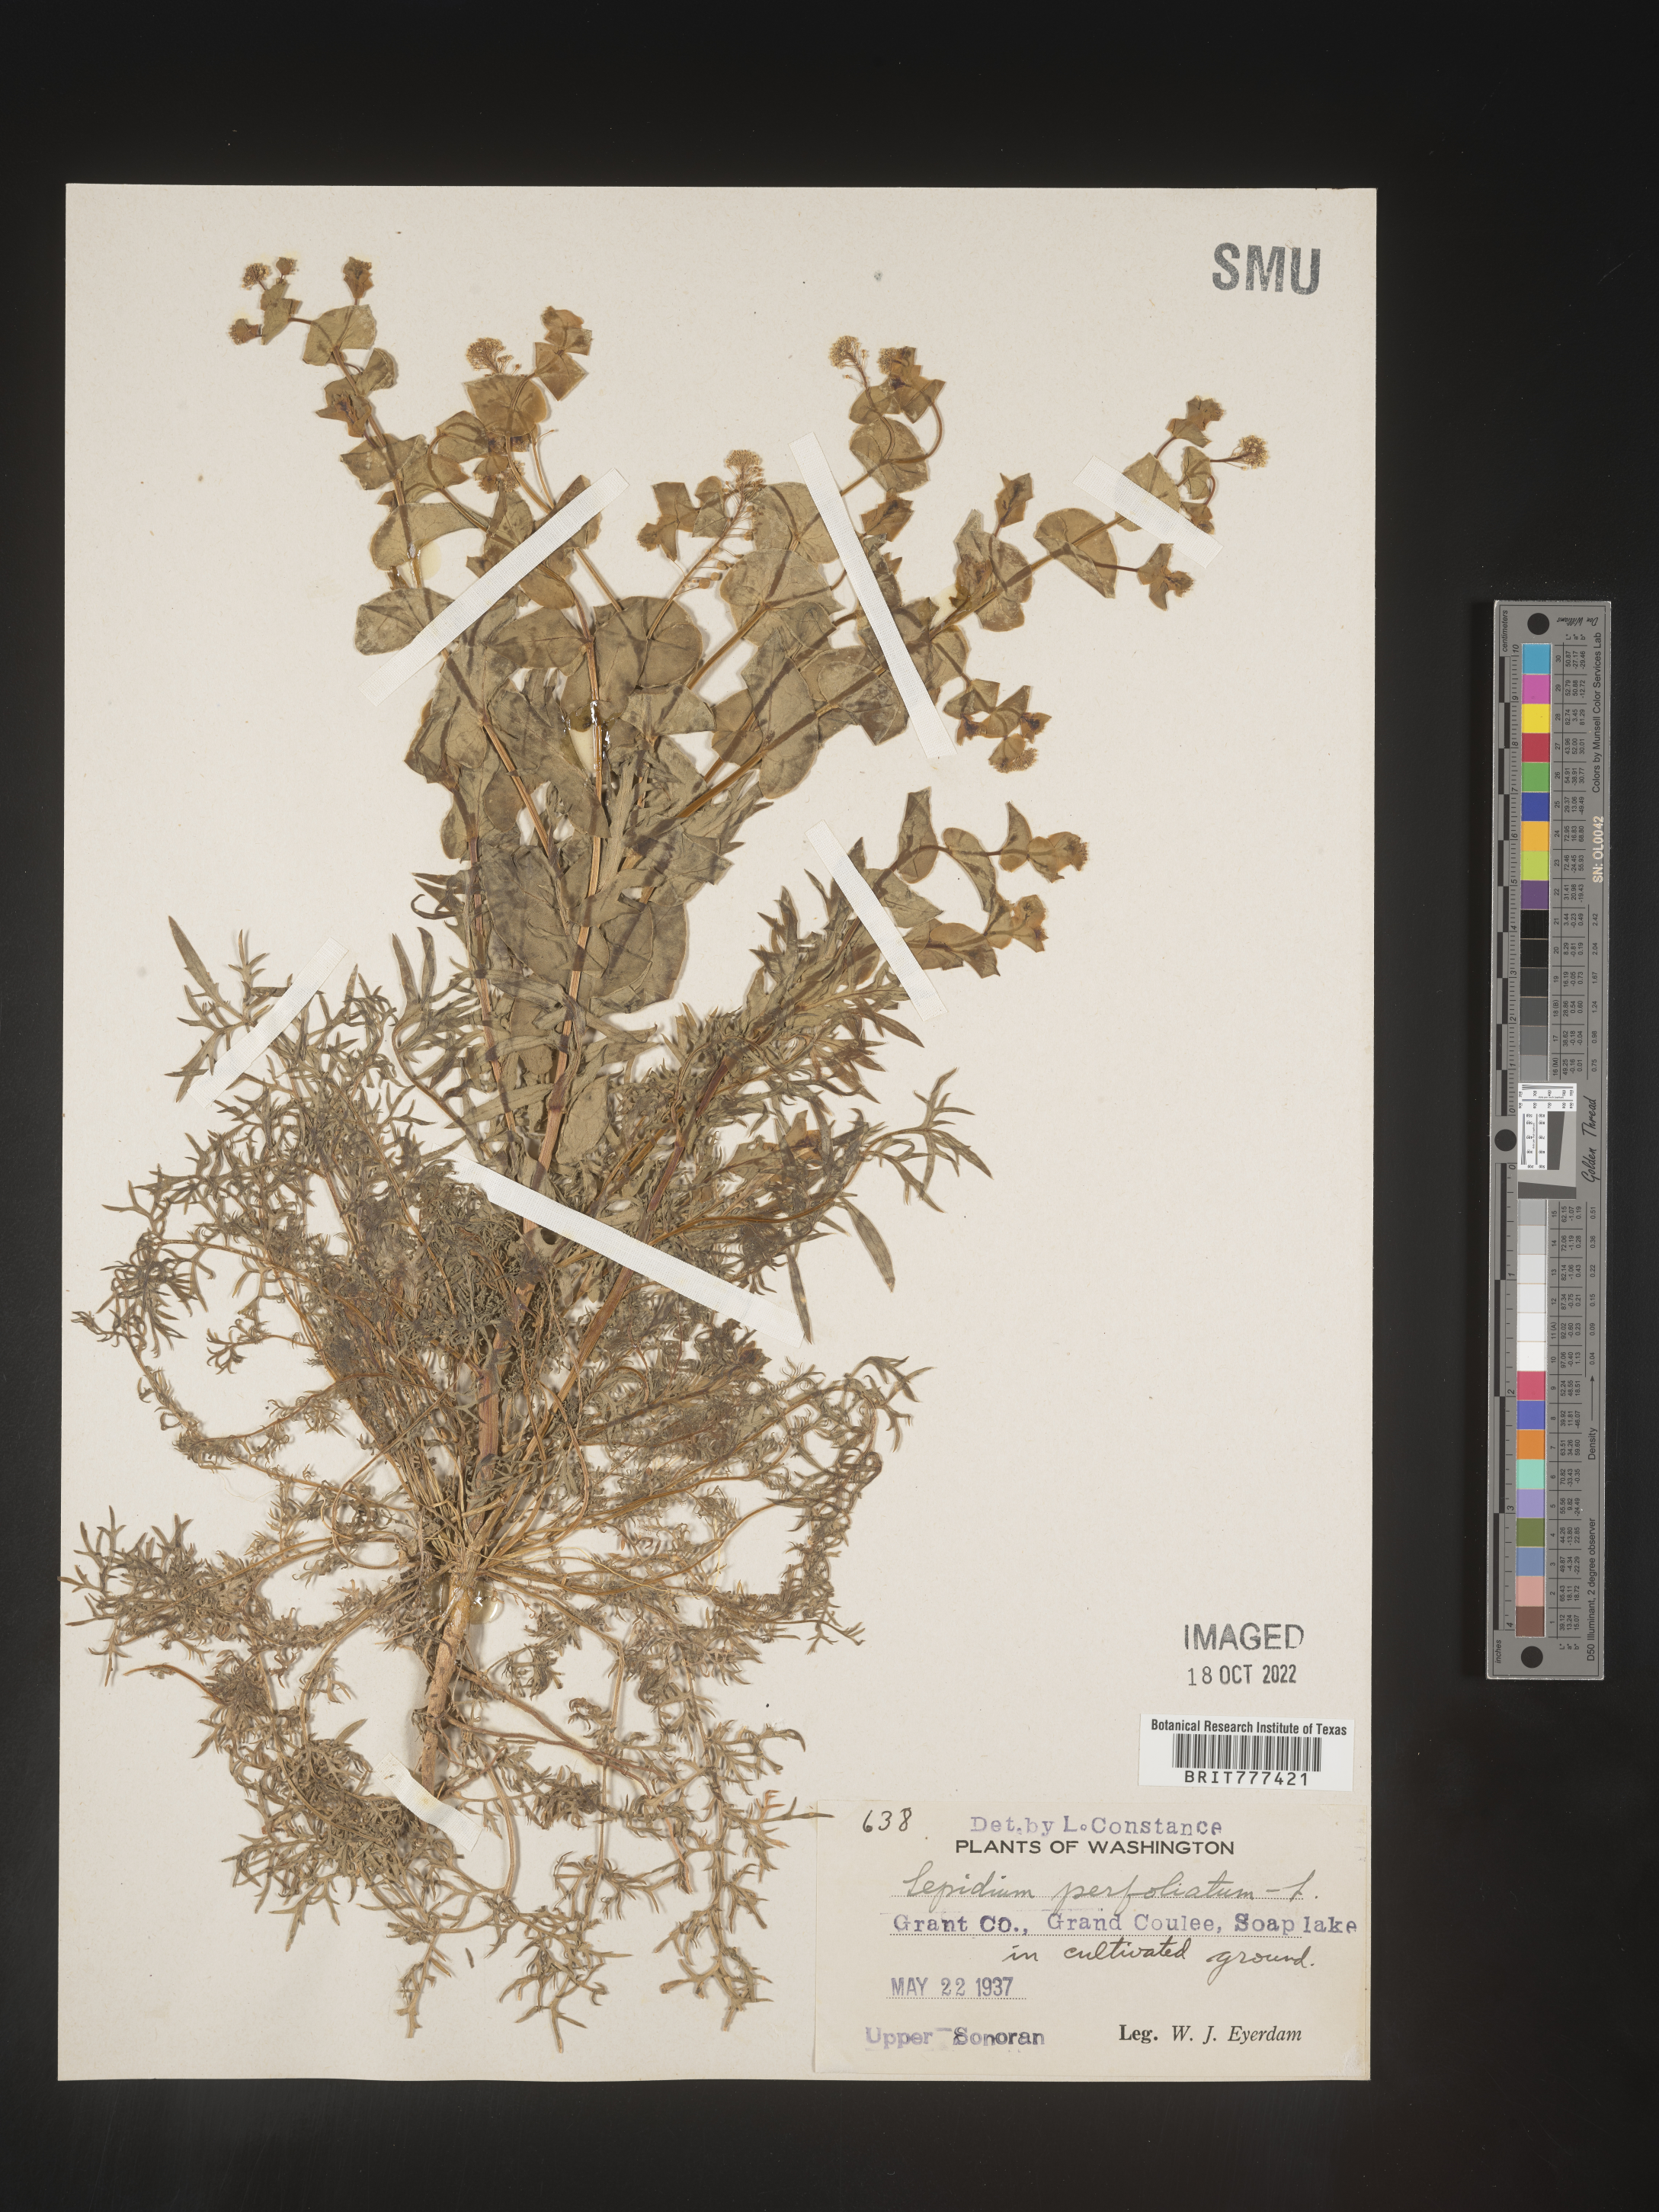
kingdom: Plantae
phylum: Tracheophyta
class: Magnoliopsida
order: Brassicales
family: Brassicaceae
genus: Lepidium
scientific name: Lepidium perfoliatum
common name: Perfoliate pepperwort
